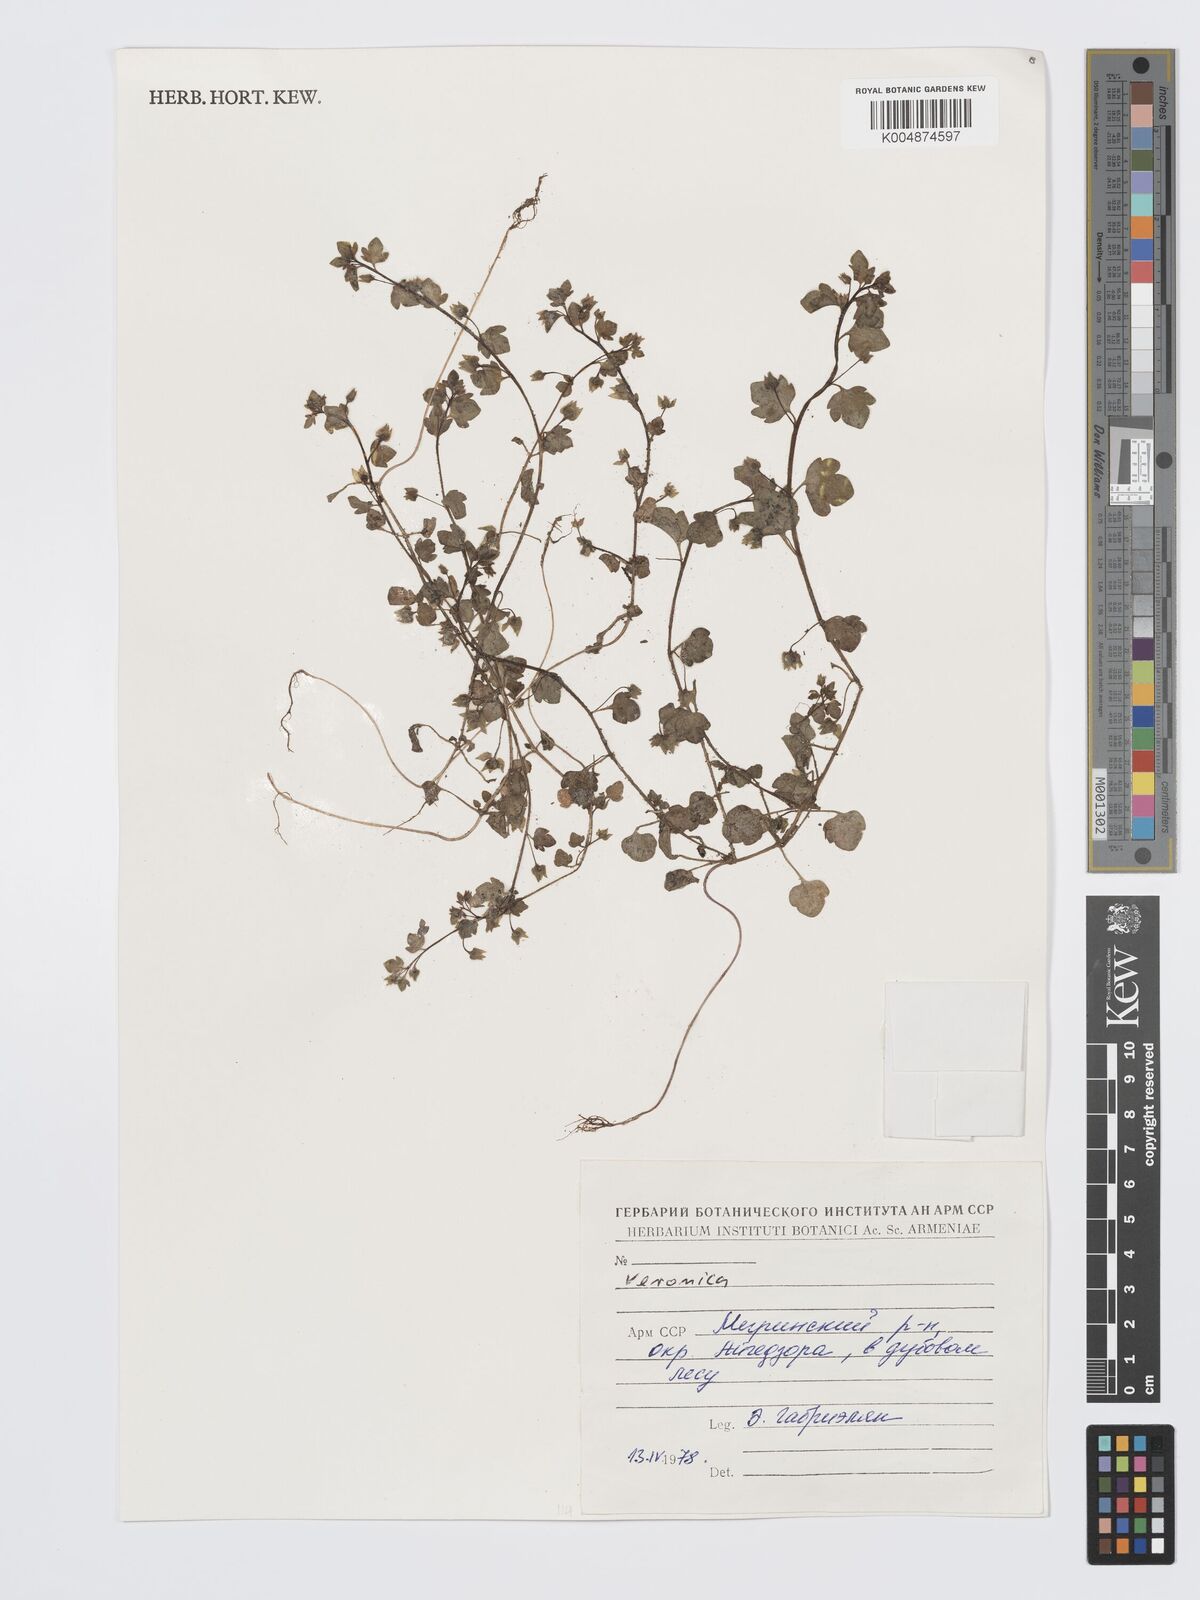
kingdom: Plantae
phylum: Tracheophyta
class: Magnoliopsida
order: Lamiales
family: Plantaginaceae
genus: Veronica
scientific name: Veronica
